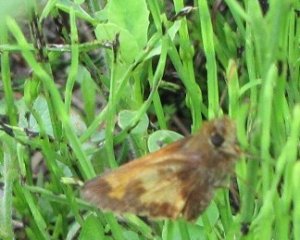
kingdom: Animalia
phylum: Arthropoda
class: Insecta
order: Lepidoptera
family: Hesperiidae
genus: Lon
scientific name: Lon hobomok
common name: Hobomok Skipper
